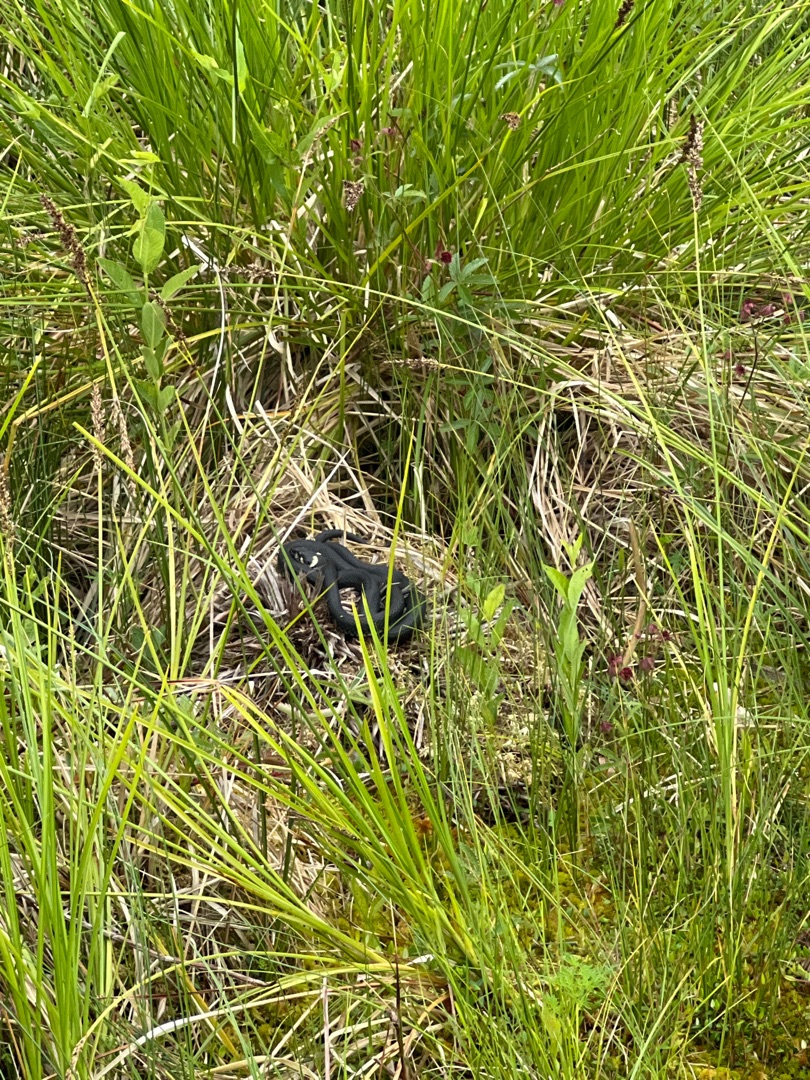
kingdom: Animalia
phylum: Chordata
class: Squamata
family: Colubridae
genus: Natrix
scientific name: Natrix natrix
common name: Snog
